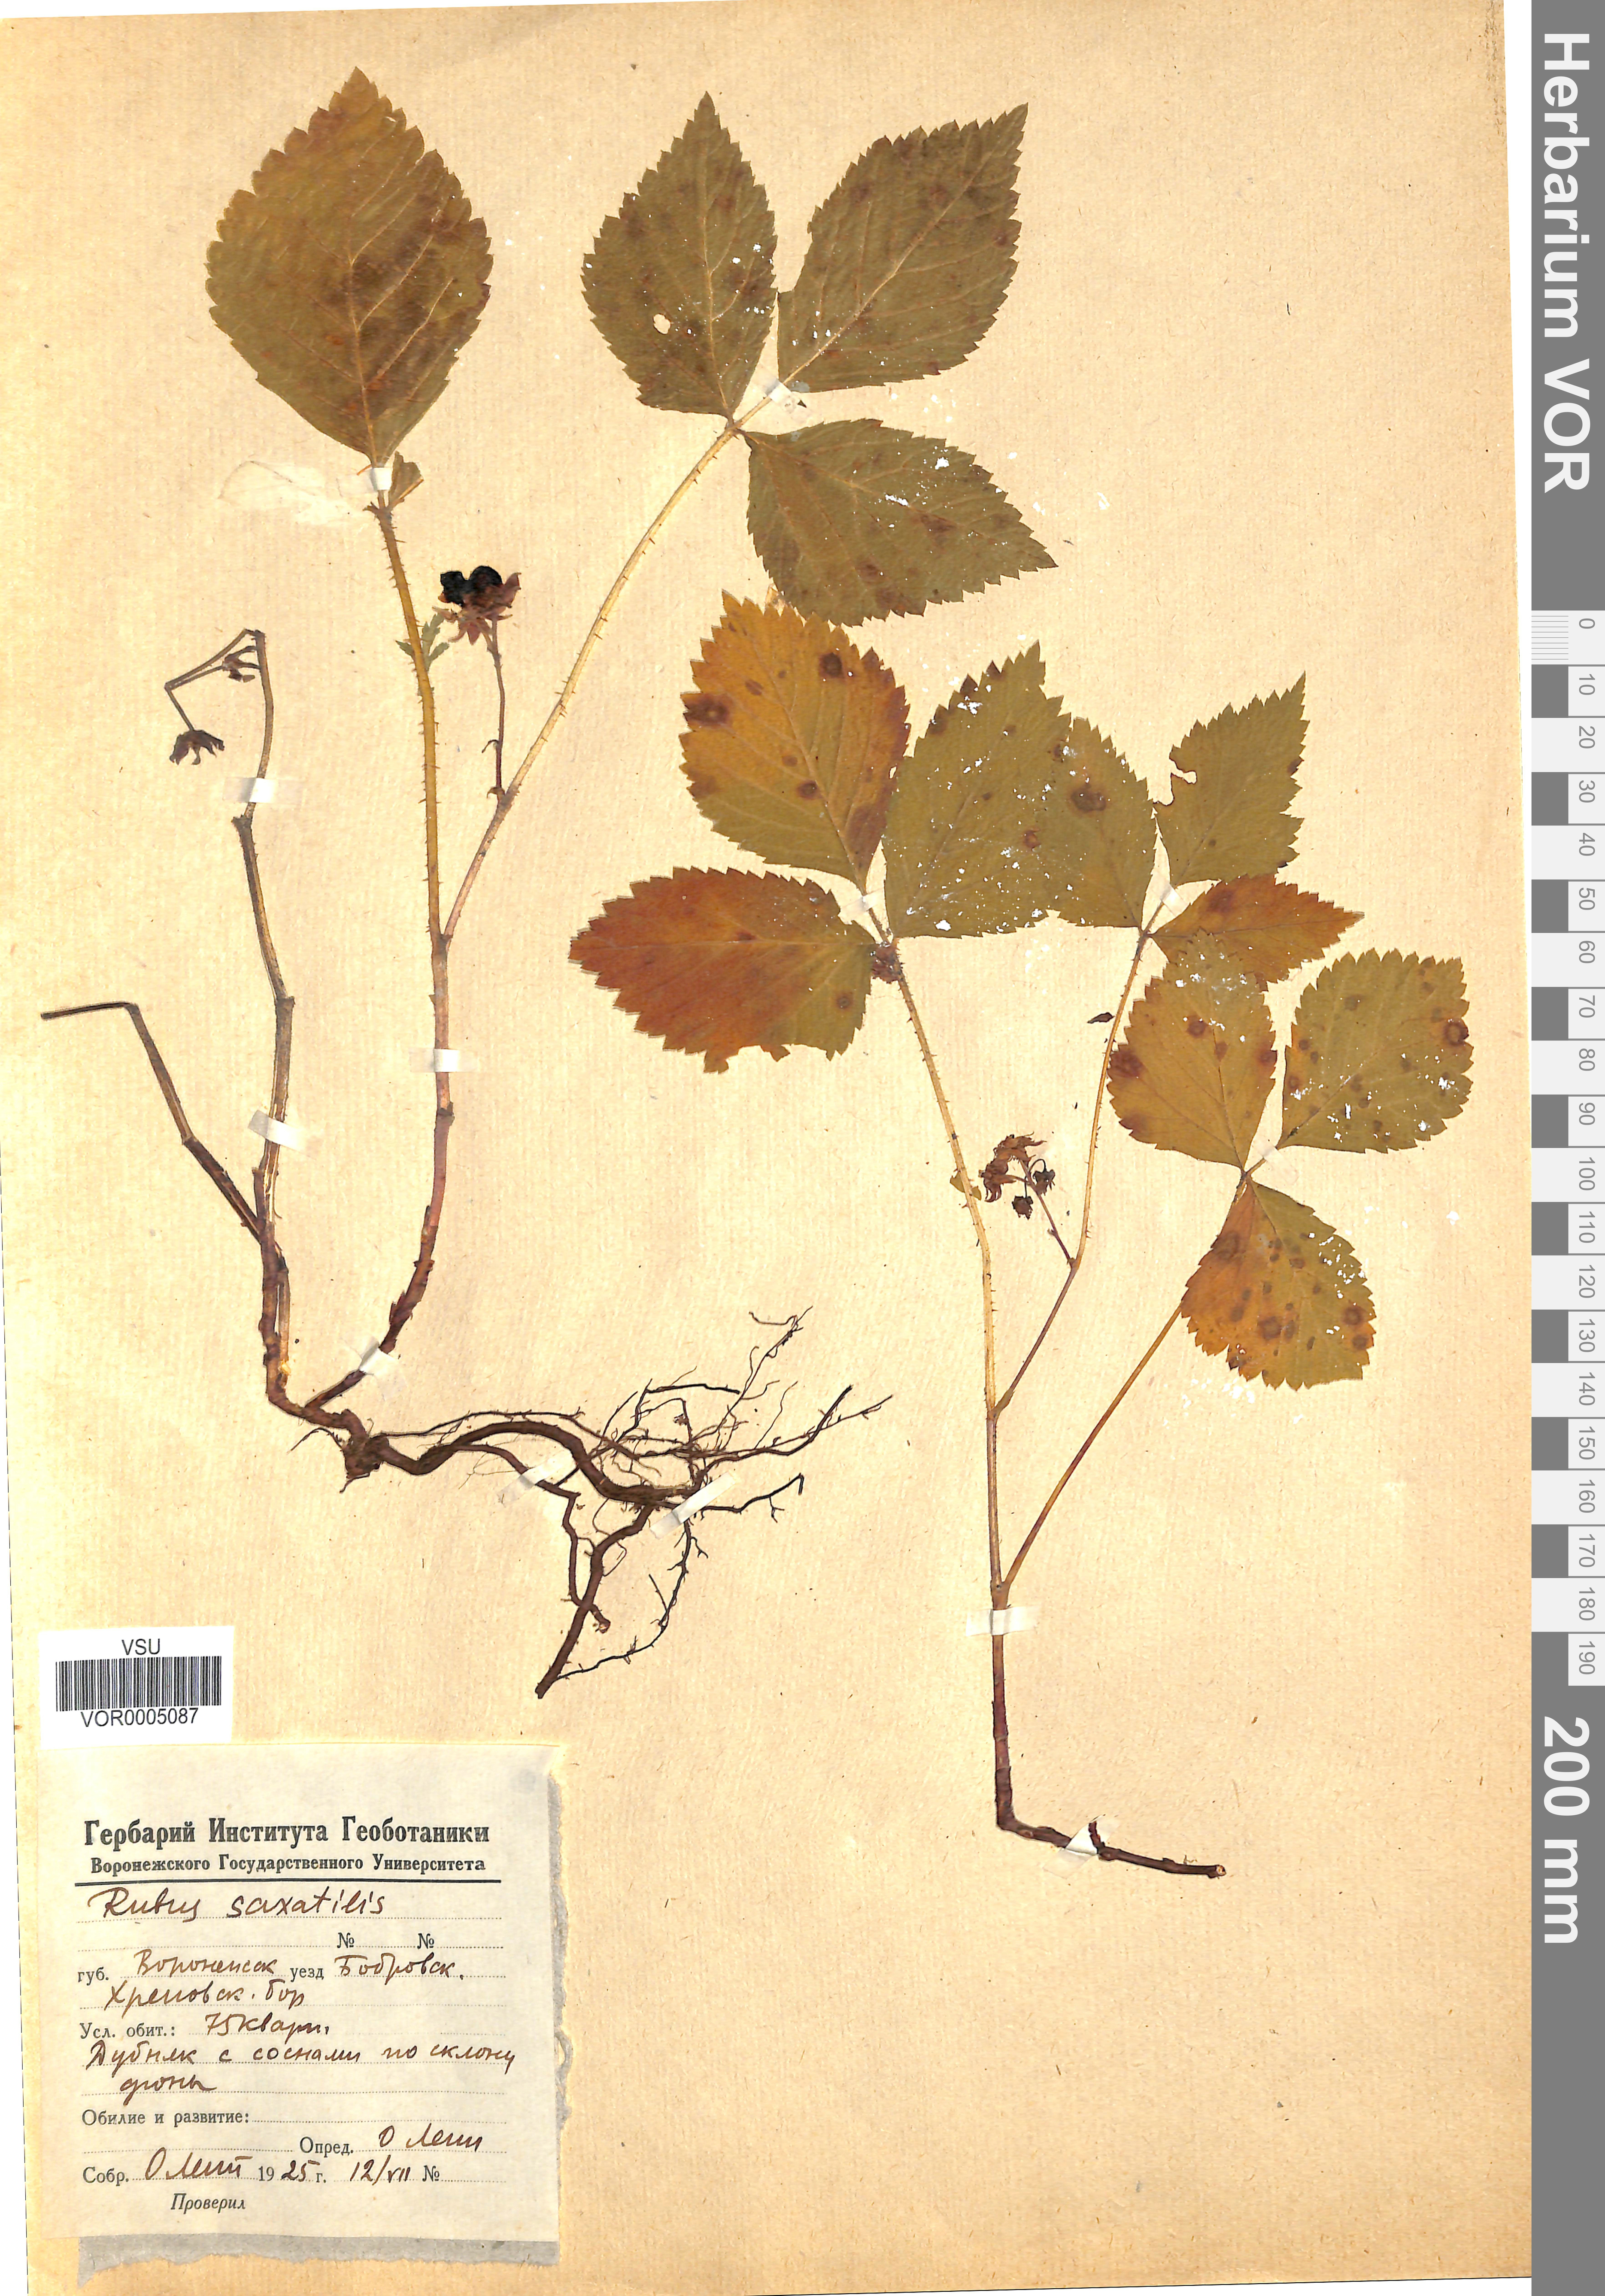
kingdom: Plantae
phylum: Tracheophyta
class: Magnoliopsida
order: Rosales
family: Rosaceae
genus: Rubus
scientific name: Rubus saxatilis
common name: Stone bramble
